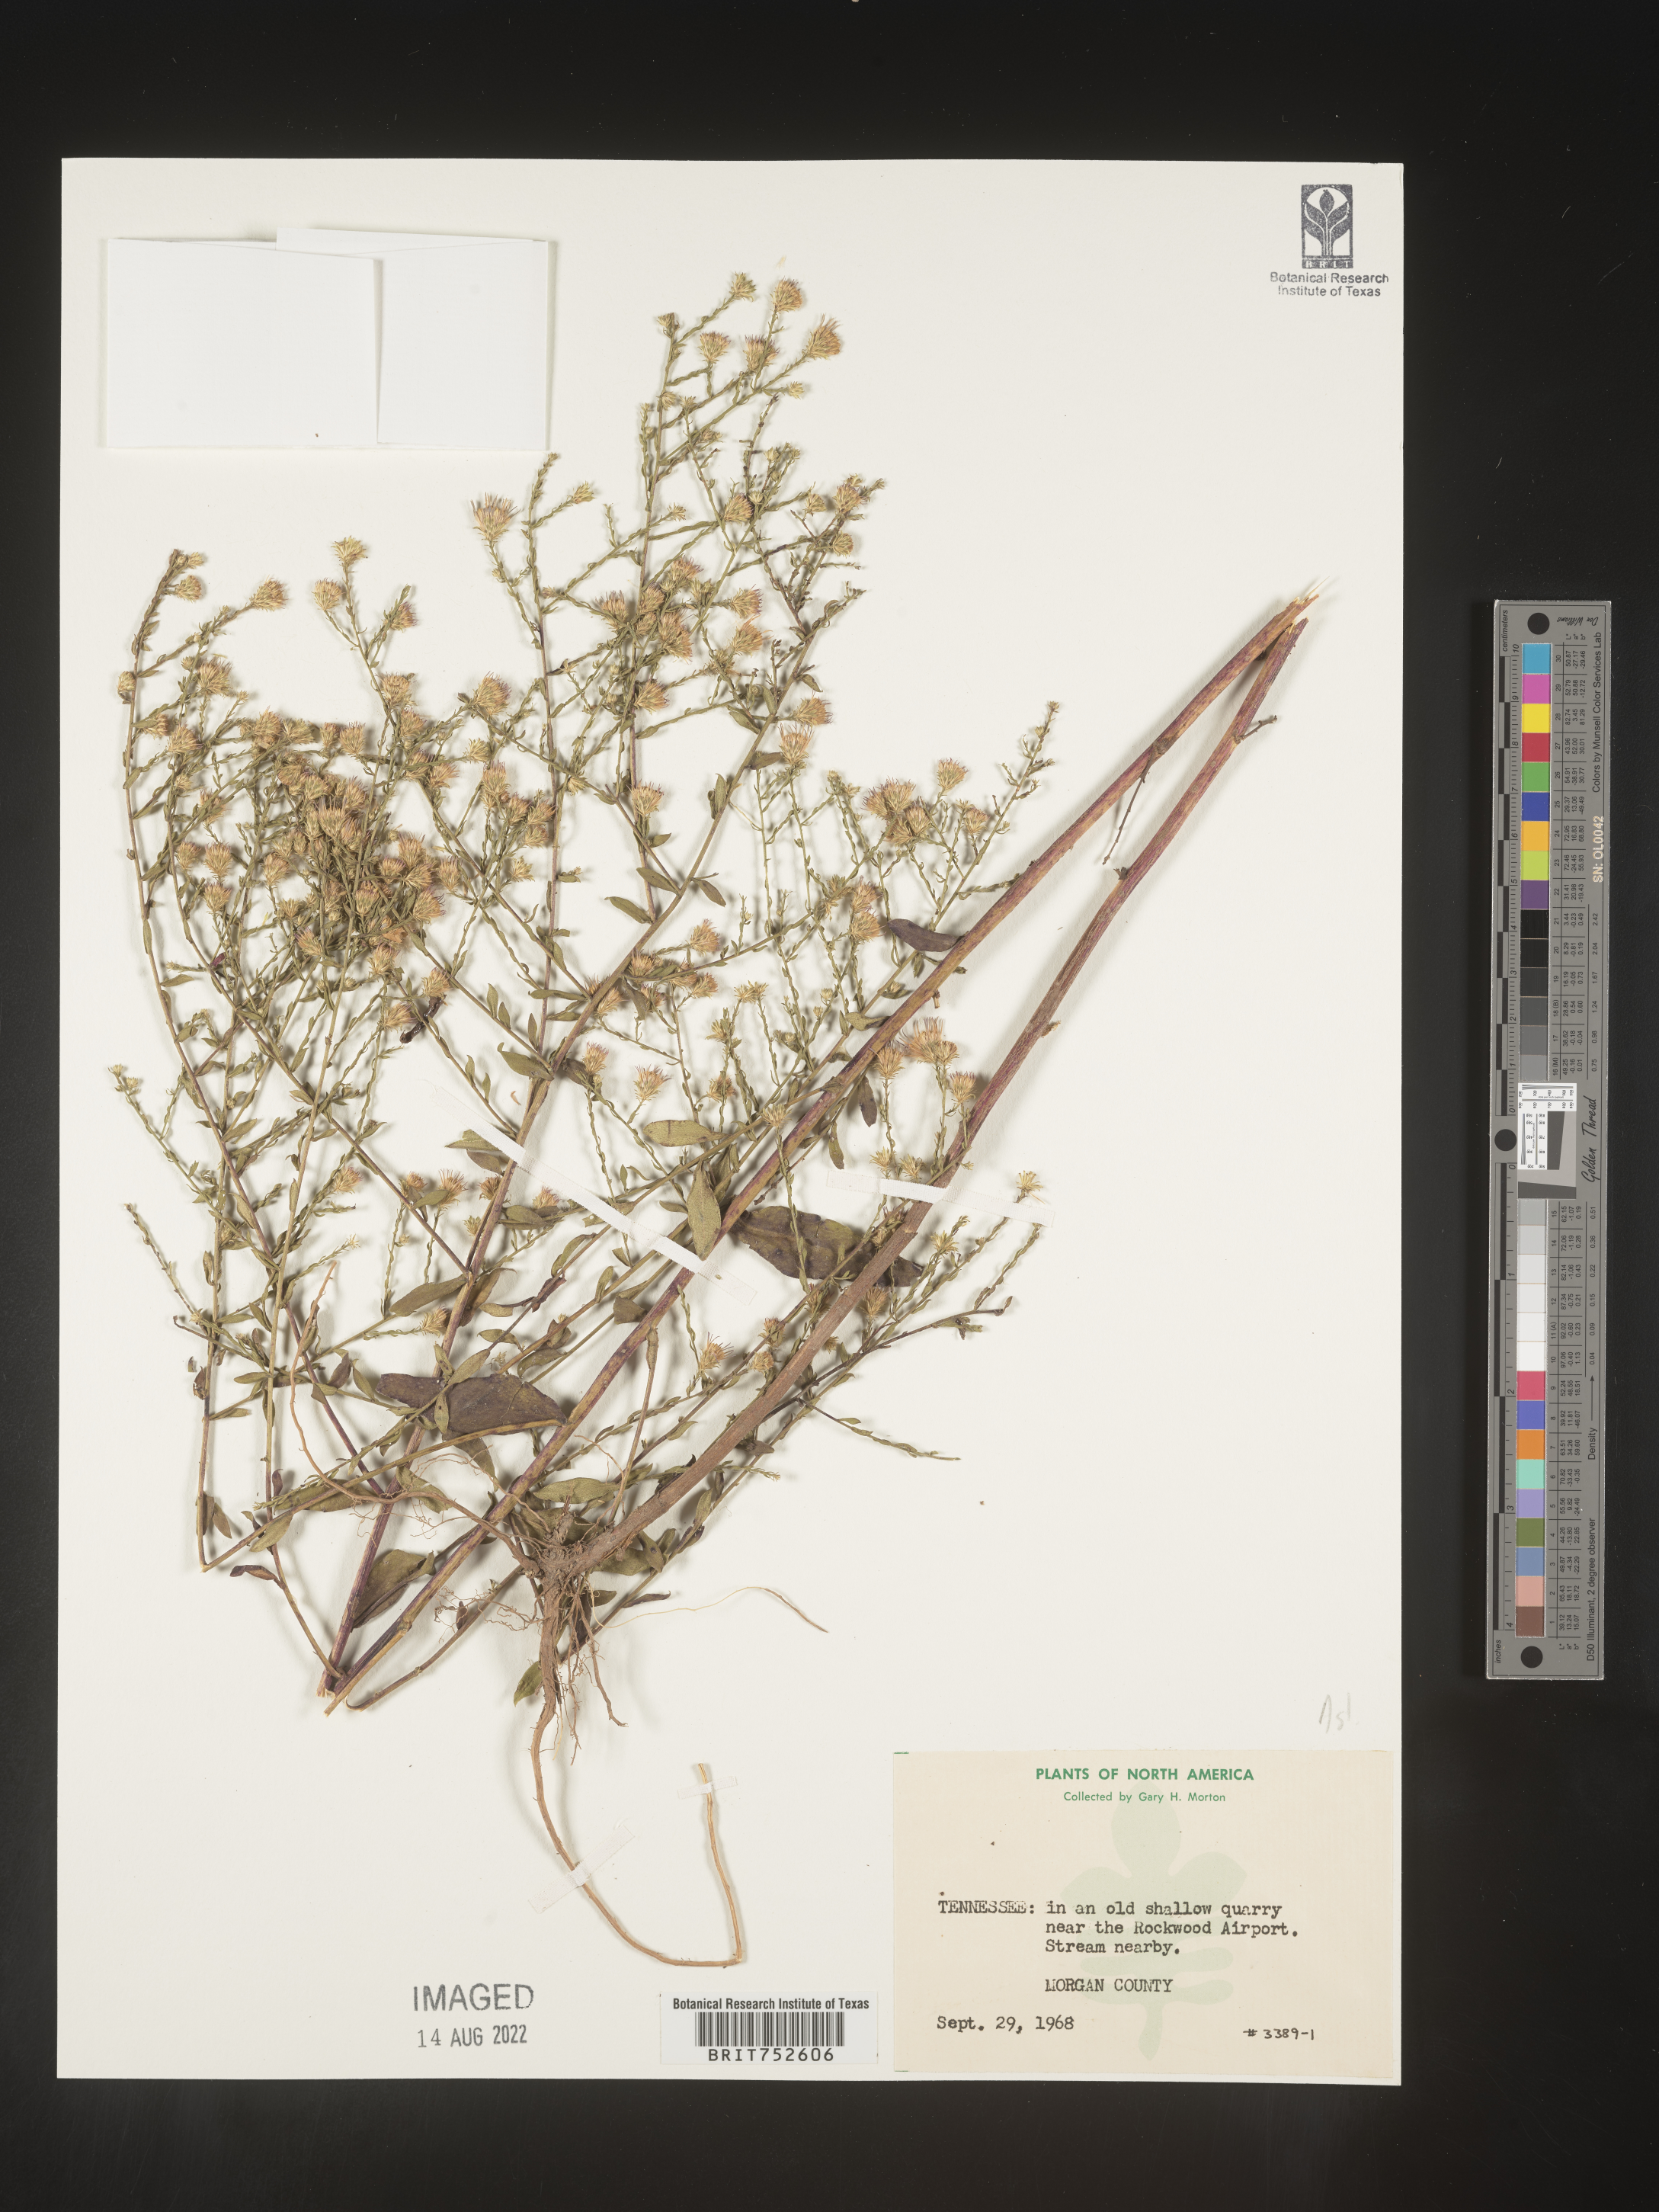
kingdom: Plantae
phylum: Tracheophyta
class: Magnoliopsida
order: Asterales
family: Asteraceae
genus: Symphyotrichum
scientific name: Symphyotrichum laeve
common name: Glaucous aster
